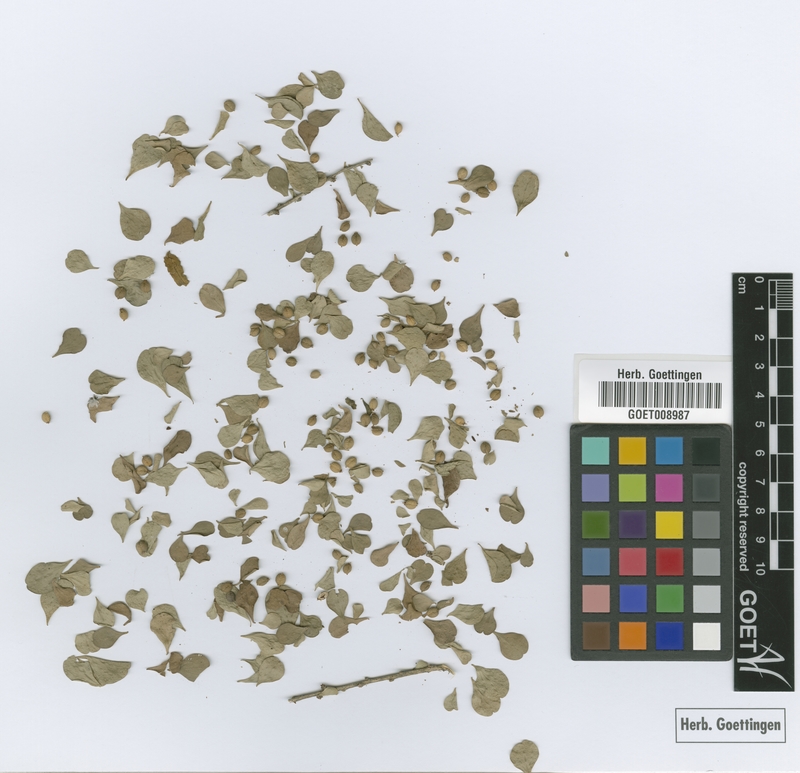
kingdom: Plantae
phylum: Tracheophyta
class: Magnoliopsida
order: Celastrales
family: Celastraceae
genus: Schaefferia
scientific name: Schaefferia marchii
